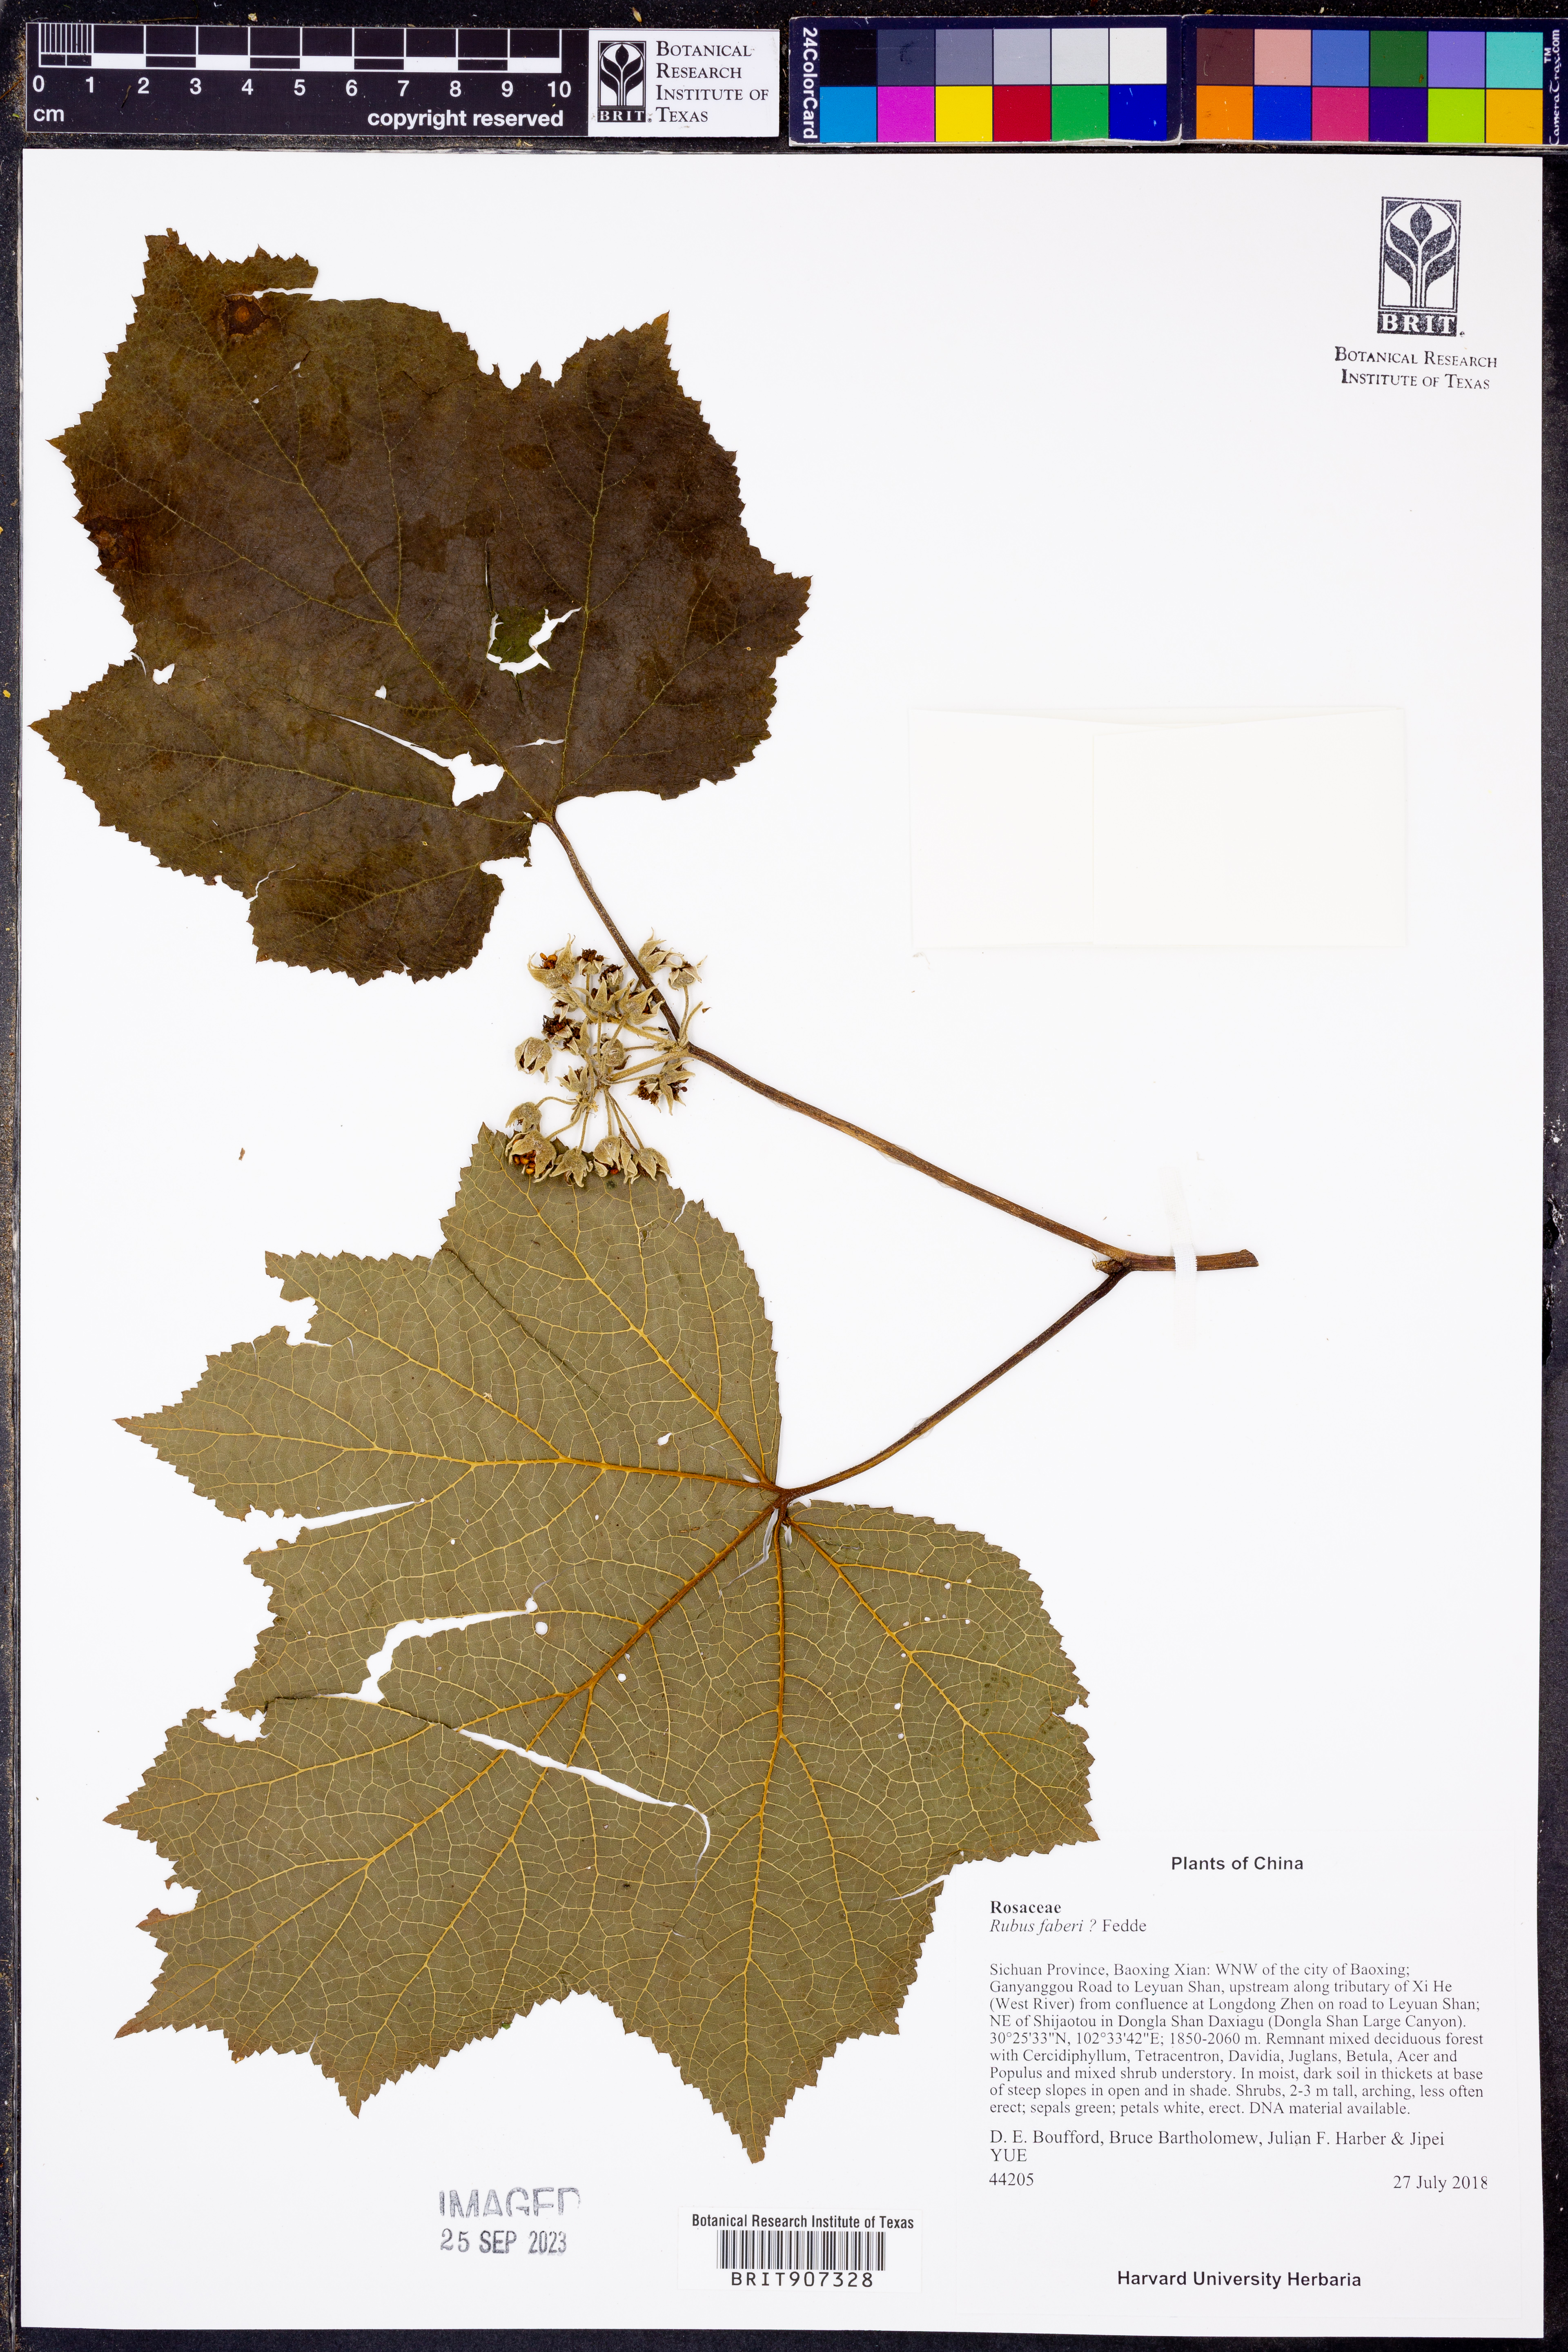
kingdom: Plantae
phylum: Tracheophyta
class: Magnoliopsida
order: Rosales
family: Rosaceae
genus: Rubus
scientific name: Rubus faberi
